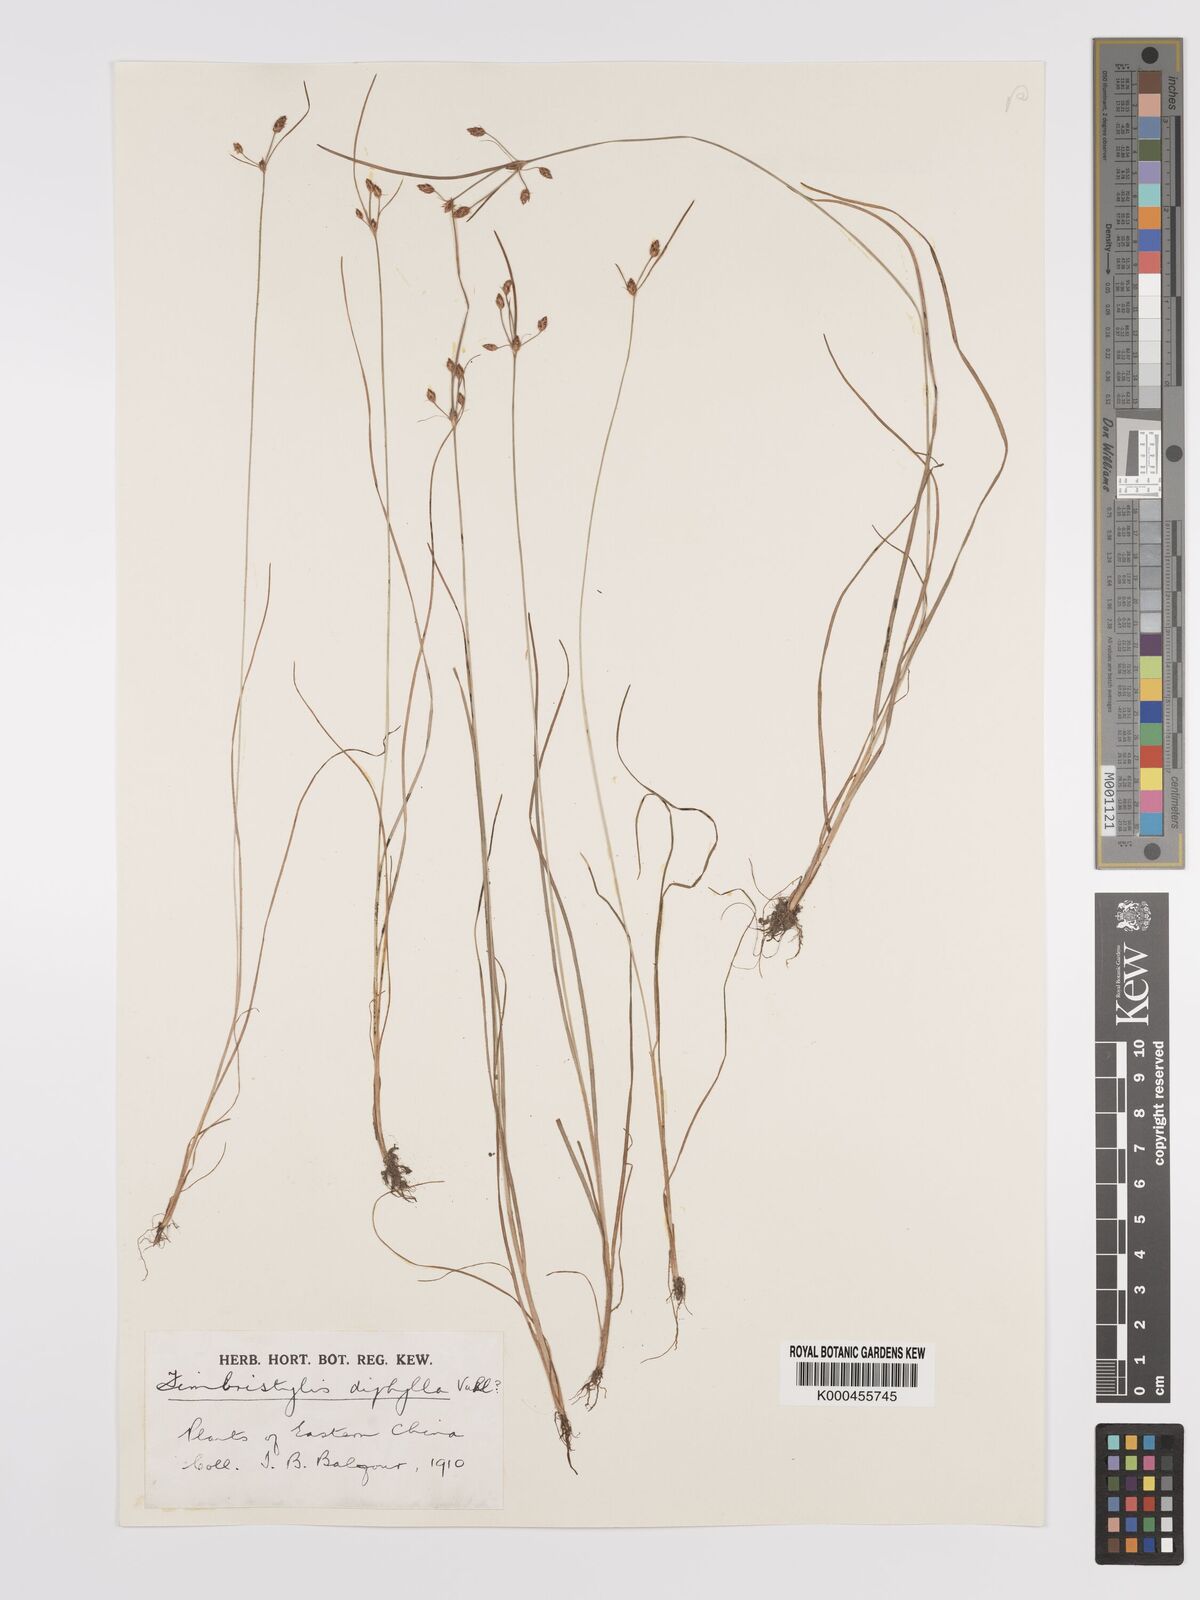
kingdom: Plantae
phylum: Tracheophyta
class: Liliopsida
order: Poales
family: Cyperaceae
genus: Fimbristylis
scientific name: Fimbristylis dichotoma
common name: Forked fimbry
